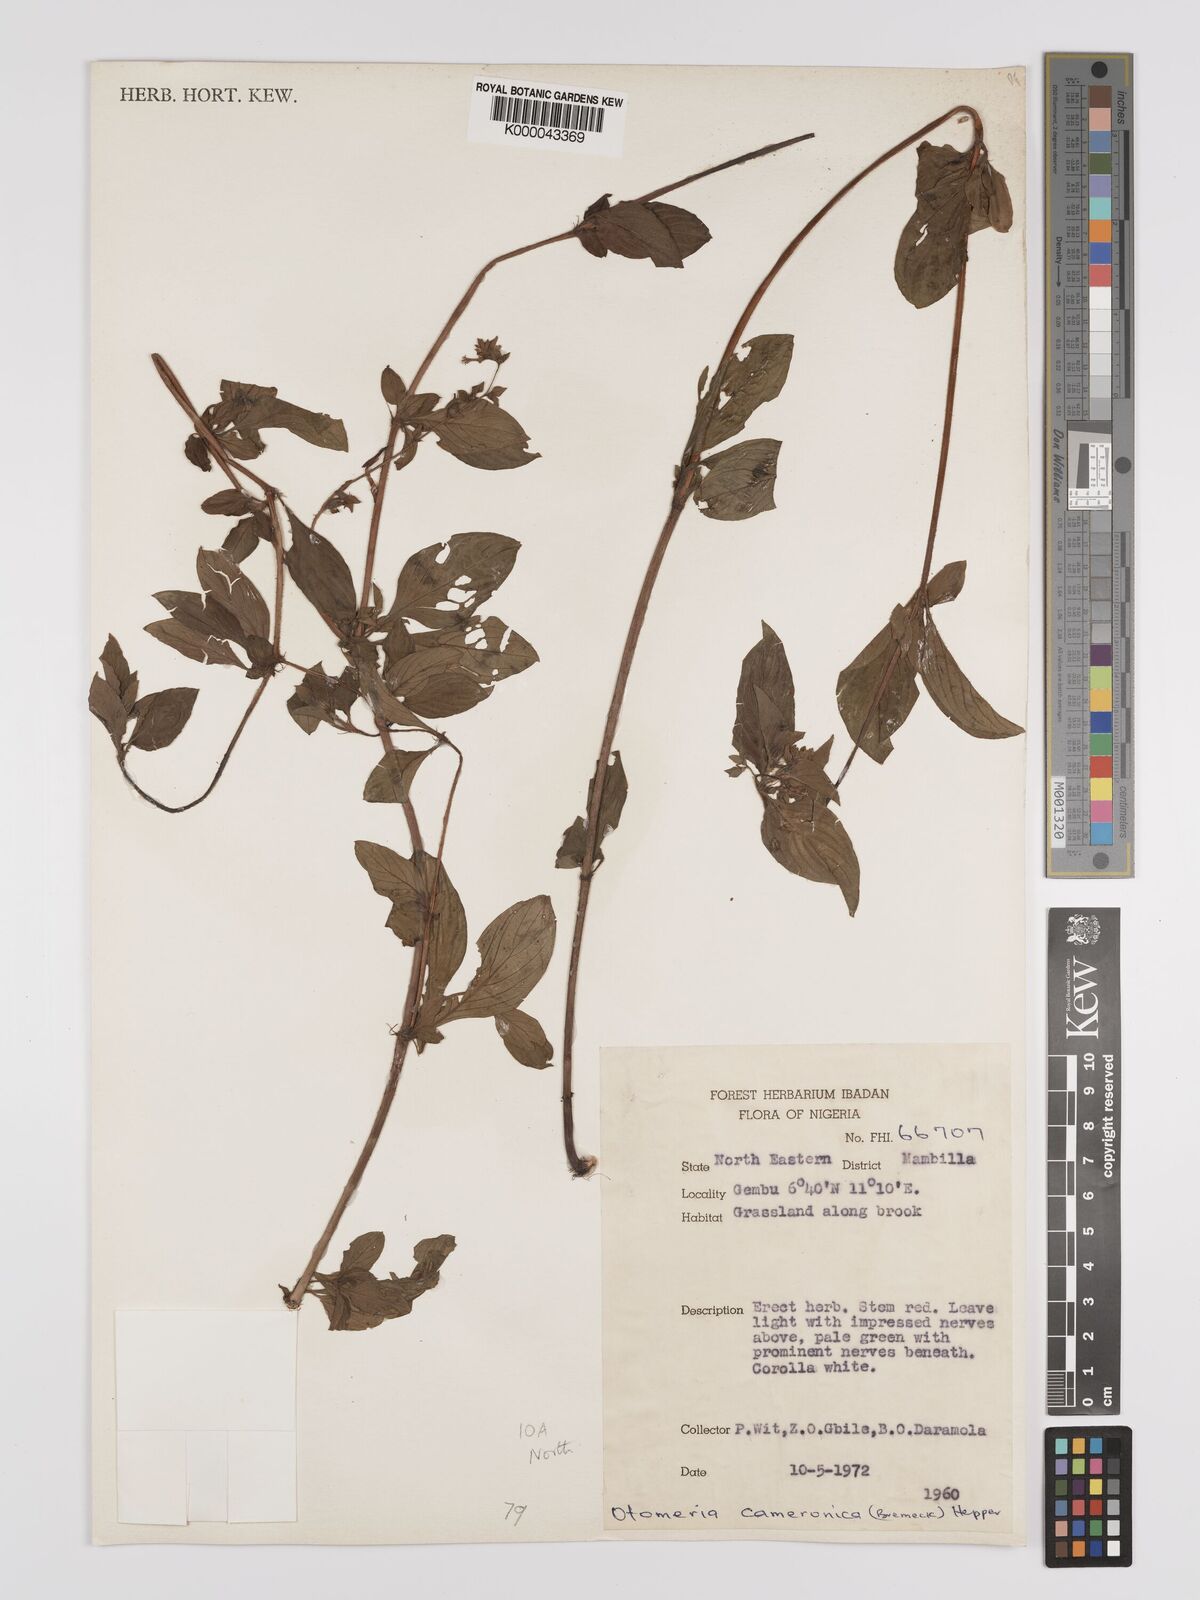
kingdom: Plantae
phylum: Tracheophyta
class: Magnoliopsida
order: Gentianales
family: Rubiaceae
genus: Otomeria
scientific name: Otomeria cameronica
